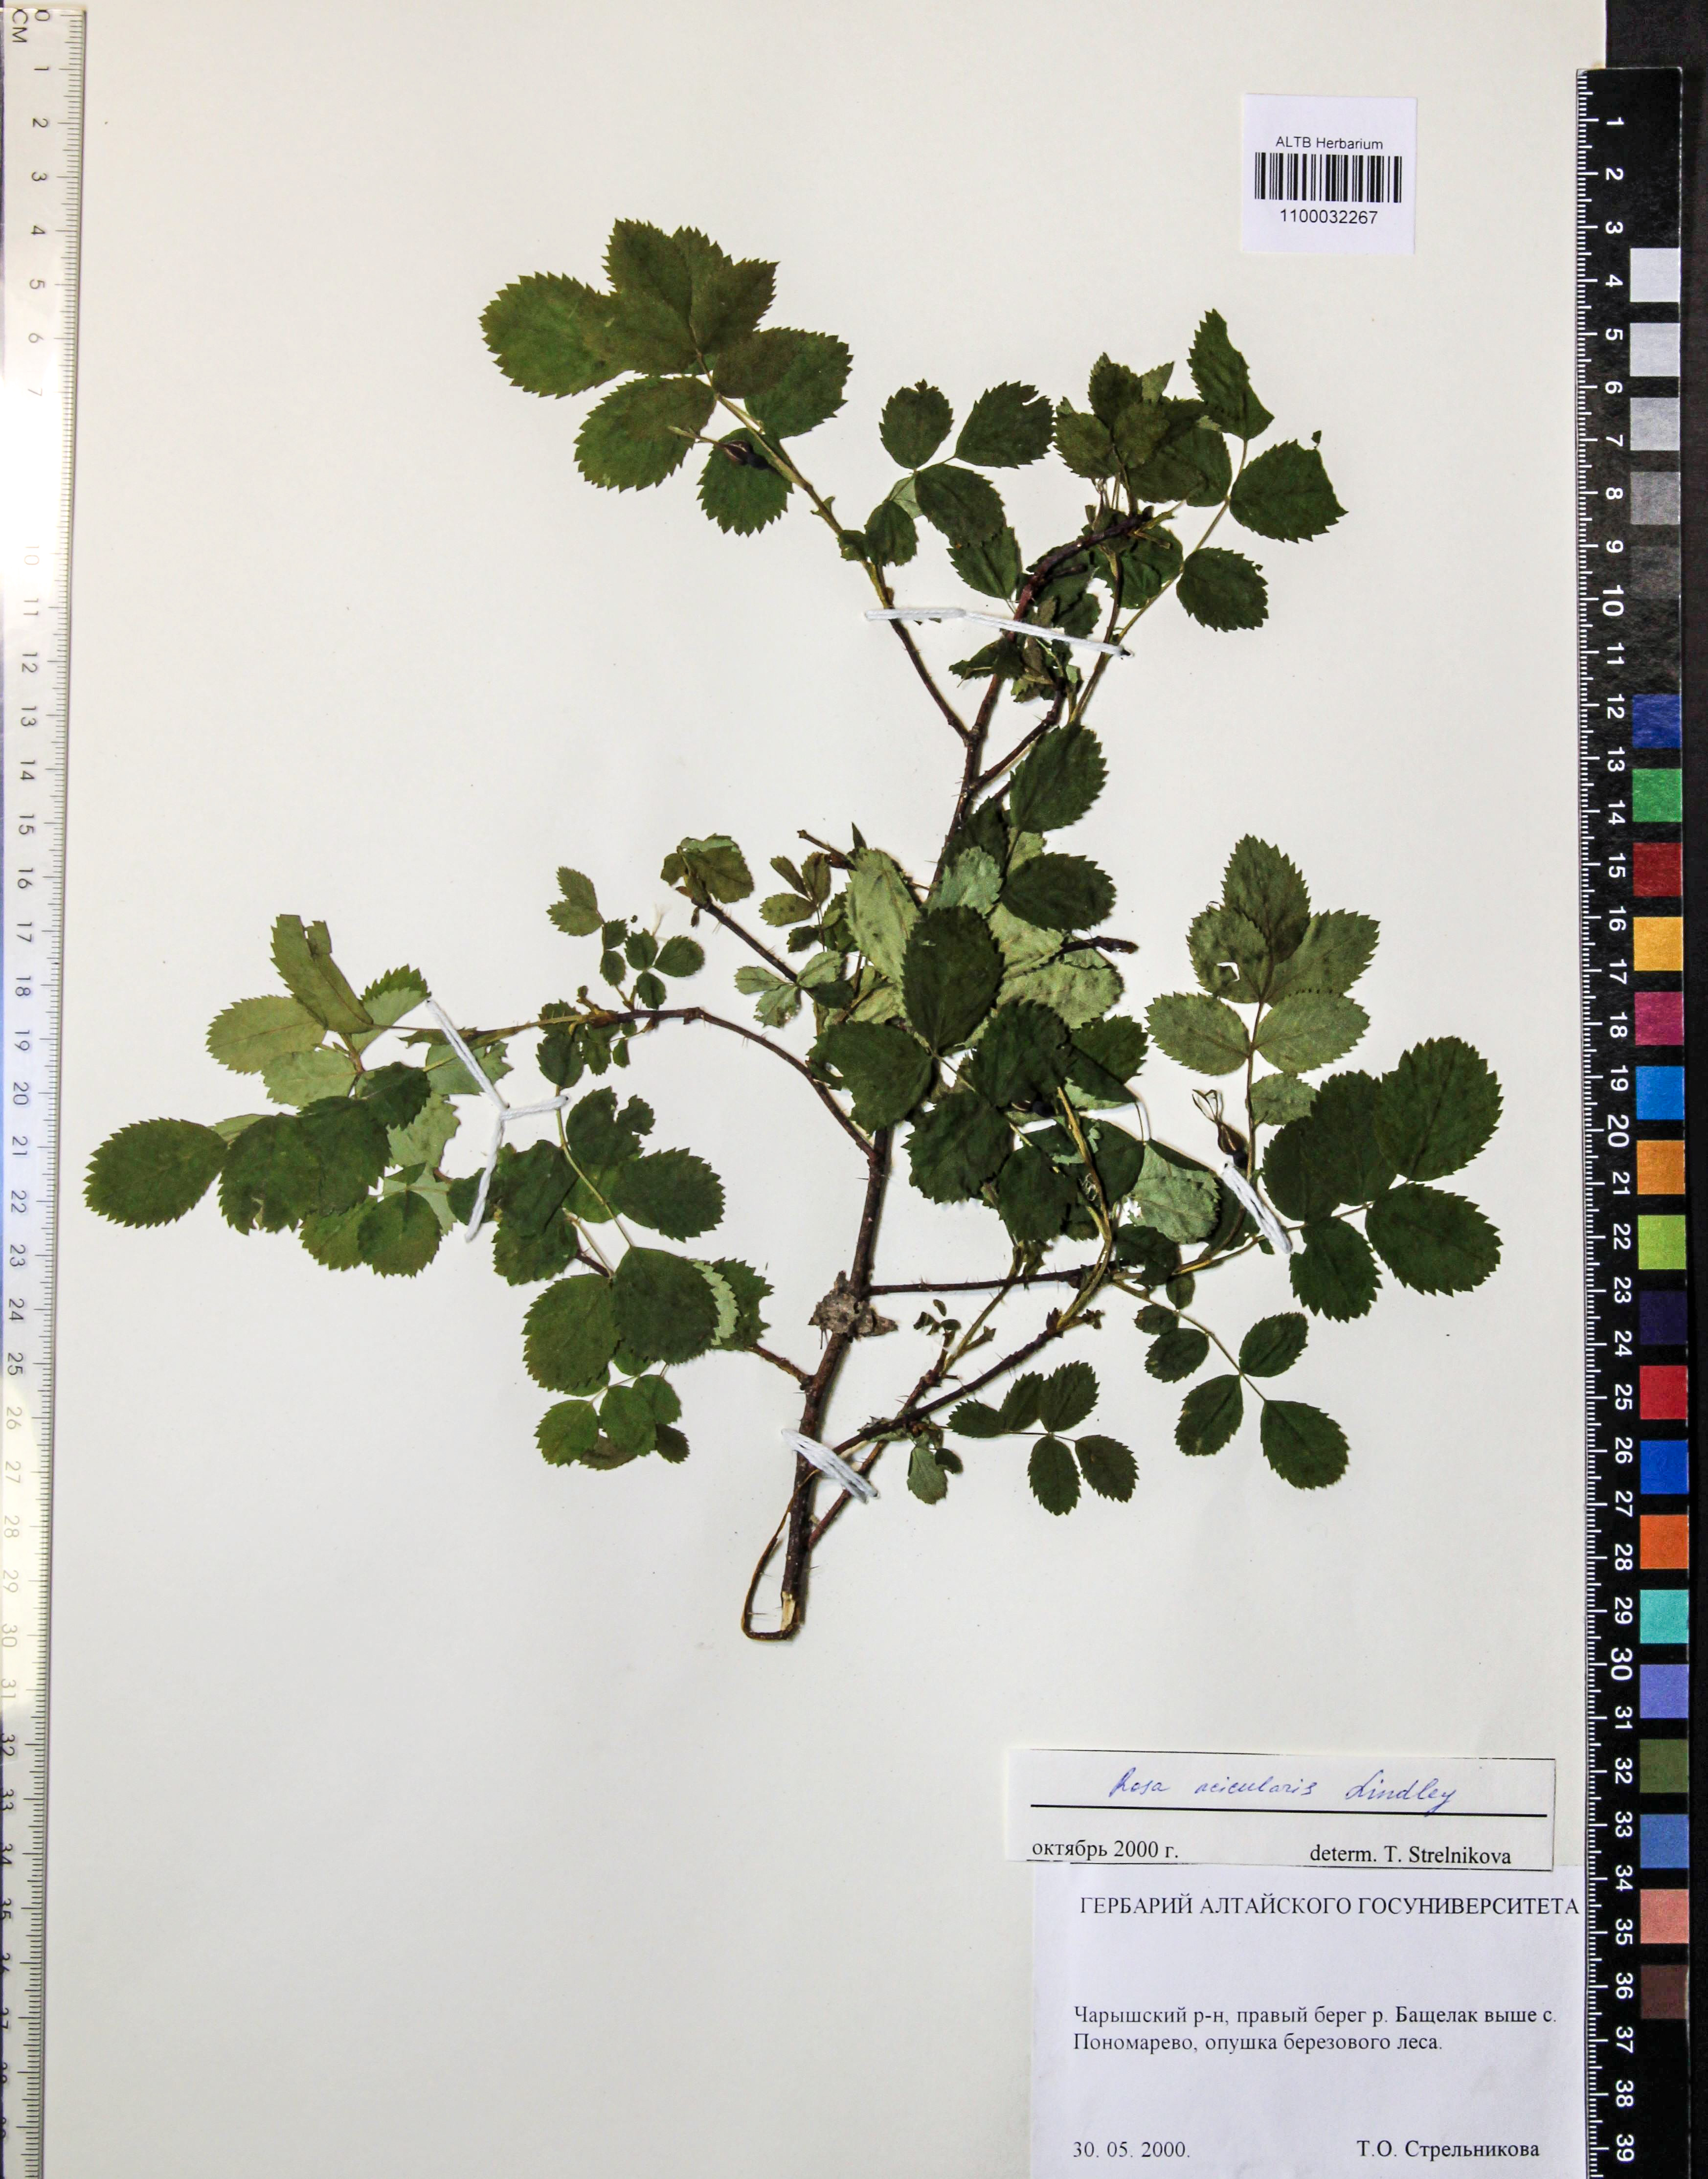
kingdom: Plantae
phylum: Tracheophyta
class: Magnoliopsida
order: Rosales
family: Rosaceae
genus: Rosa
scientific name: Rosa acicularis
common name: Prickly rose
